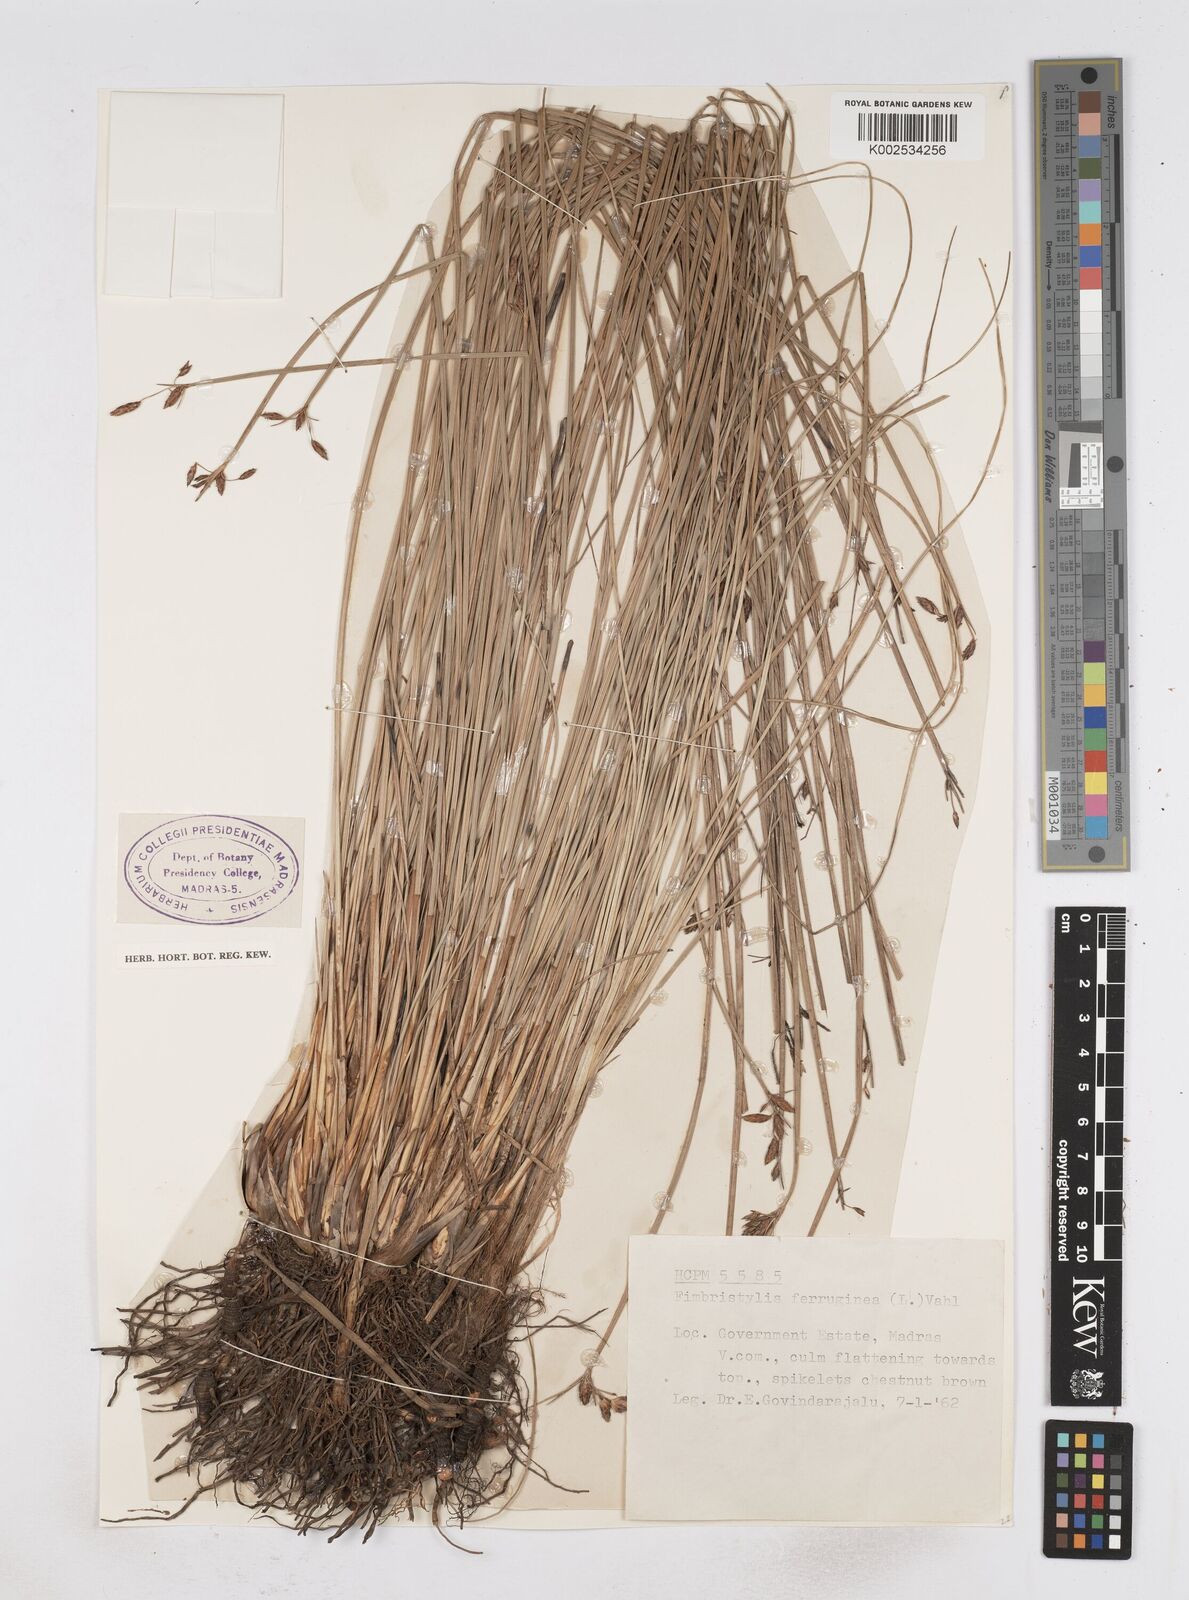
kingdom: Plantae
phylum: Tracheophyta
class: Liliopsida
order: Poales
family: Cyperaceae
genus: Fimbristylis
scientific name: Fimbristylis ferruginea
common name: West indian fimbry
